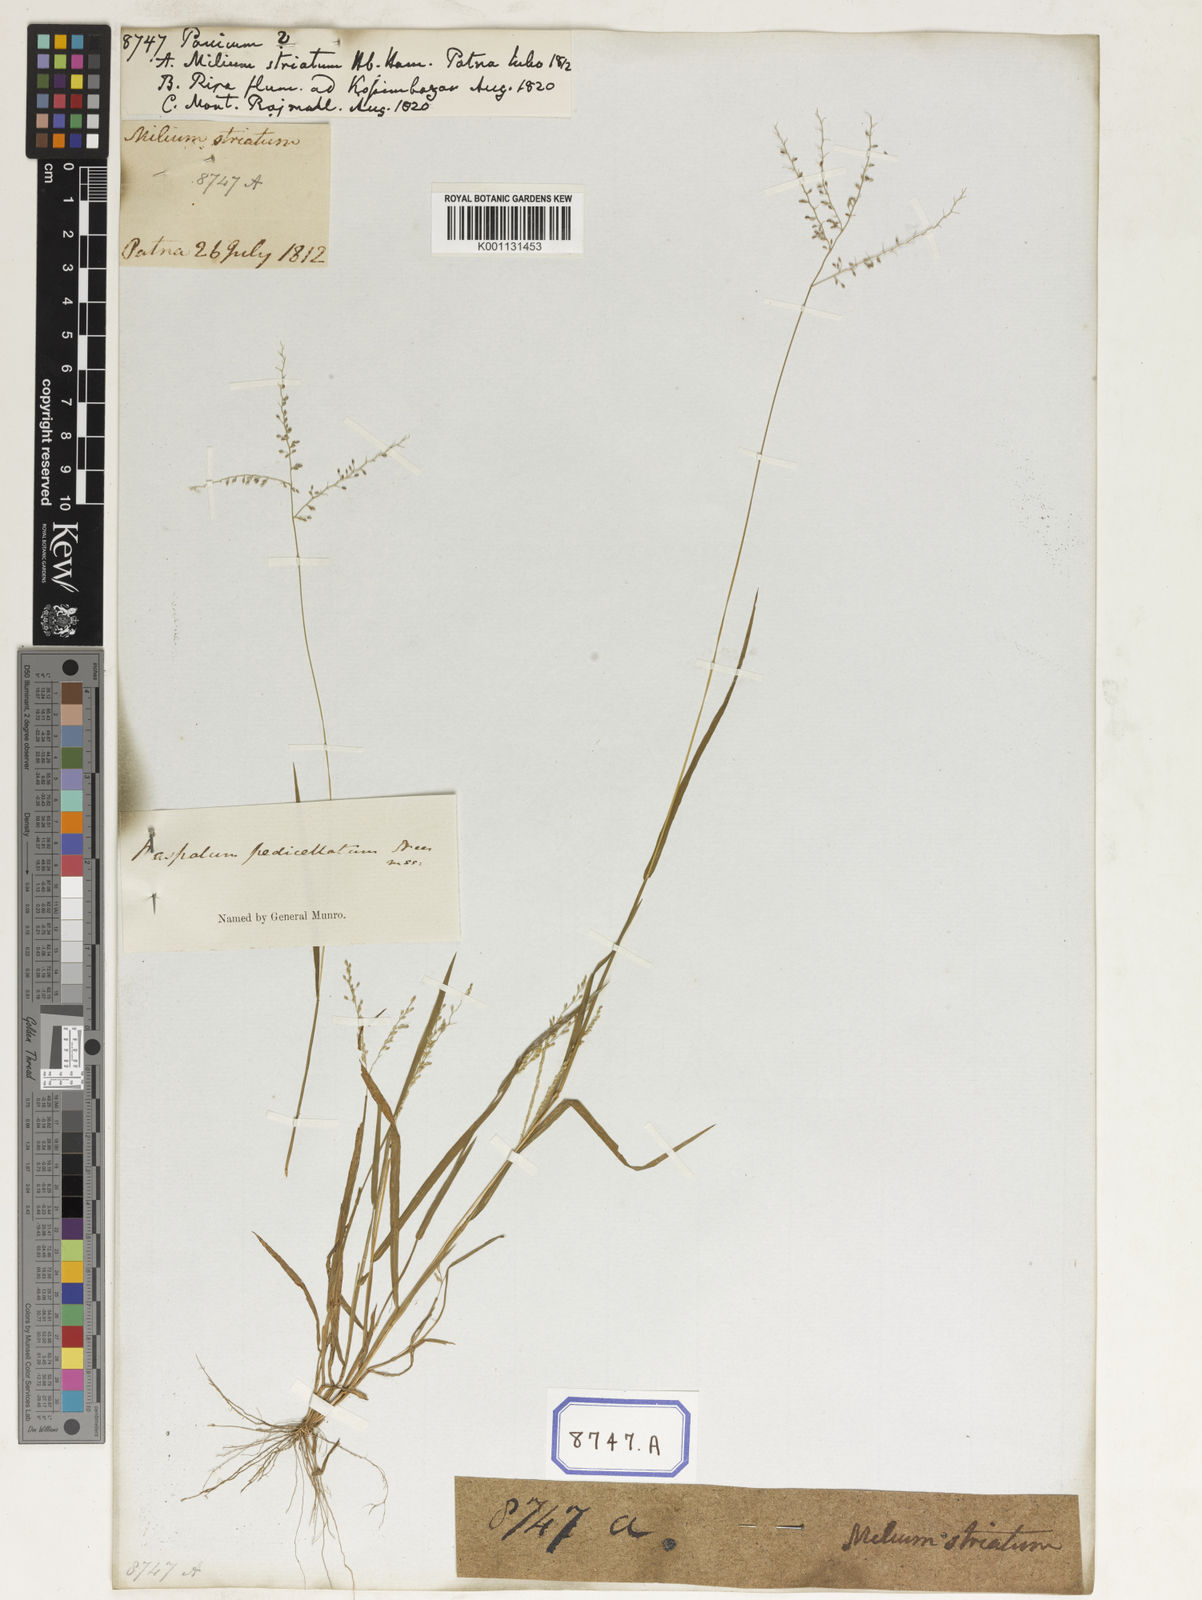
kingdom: Plantae
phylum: Tracheophyta
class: Liliopsida
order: Poales
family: Poaceae
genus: Panicum
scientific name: Panicum
